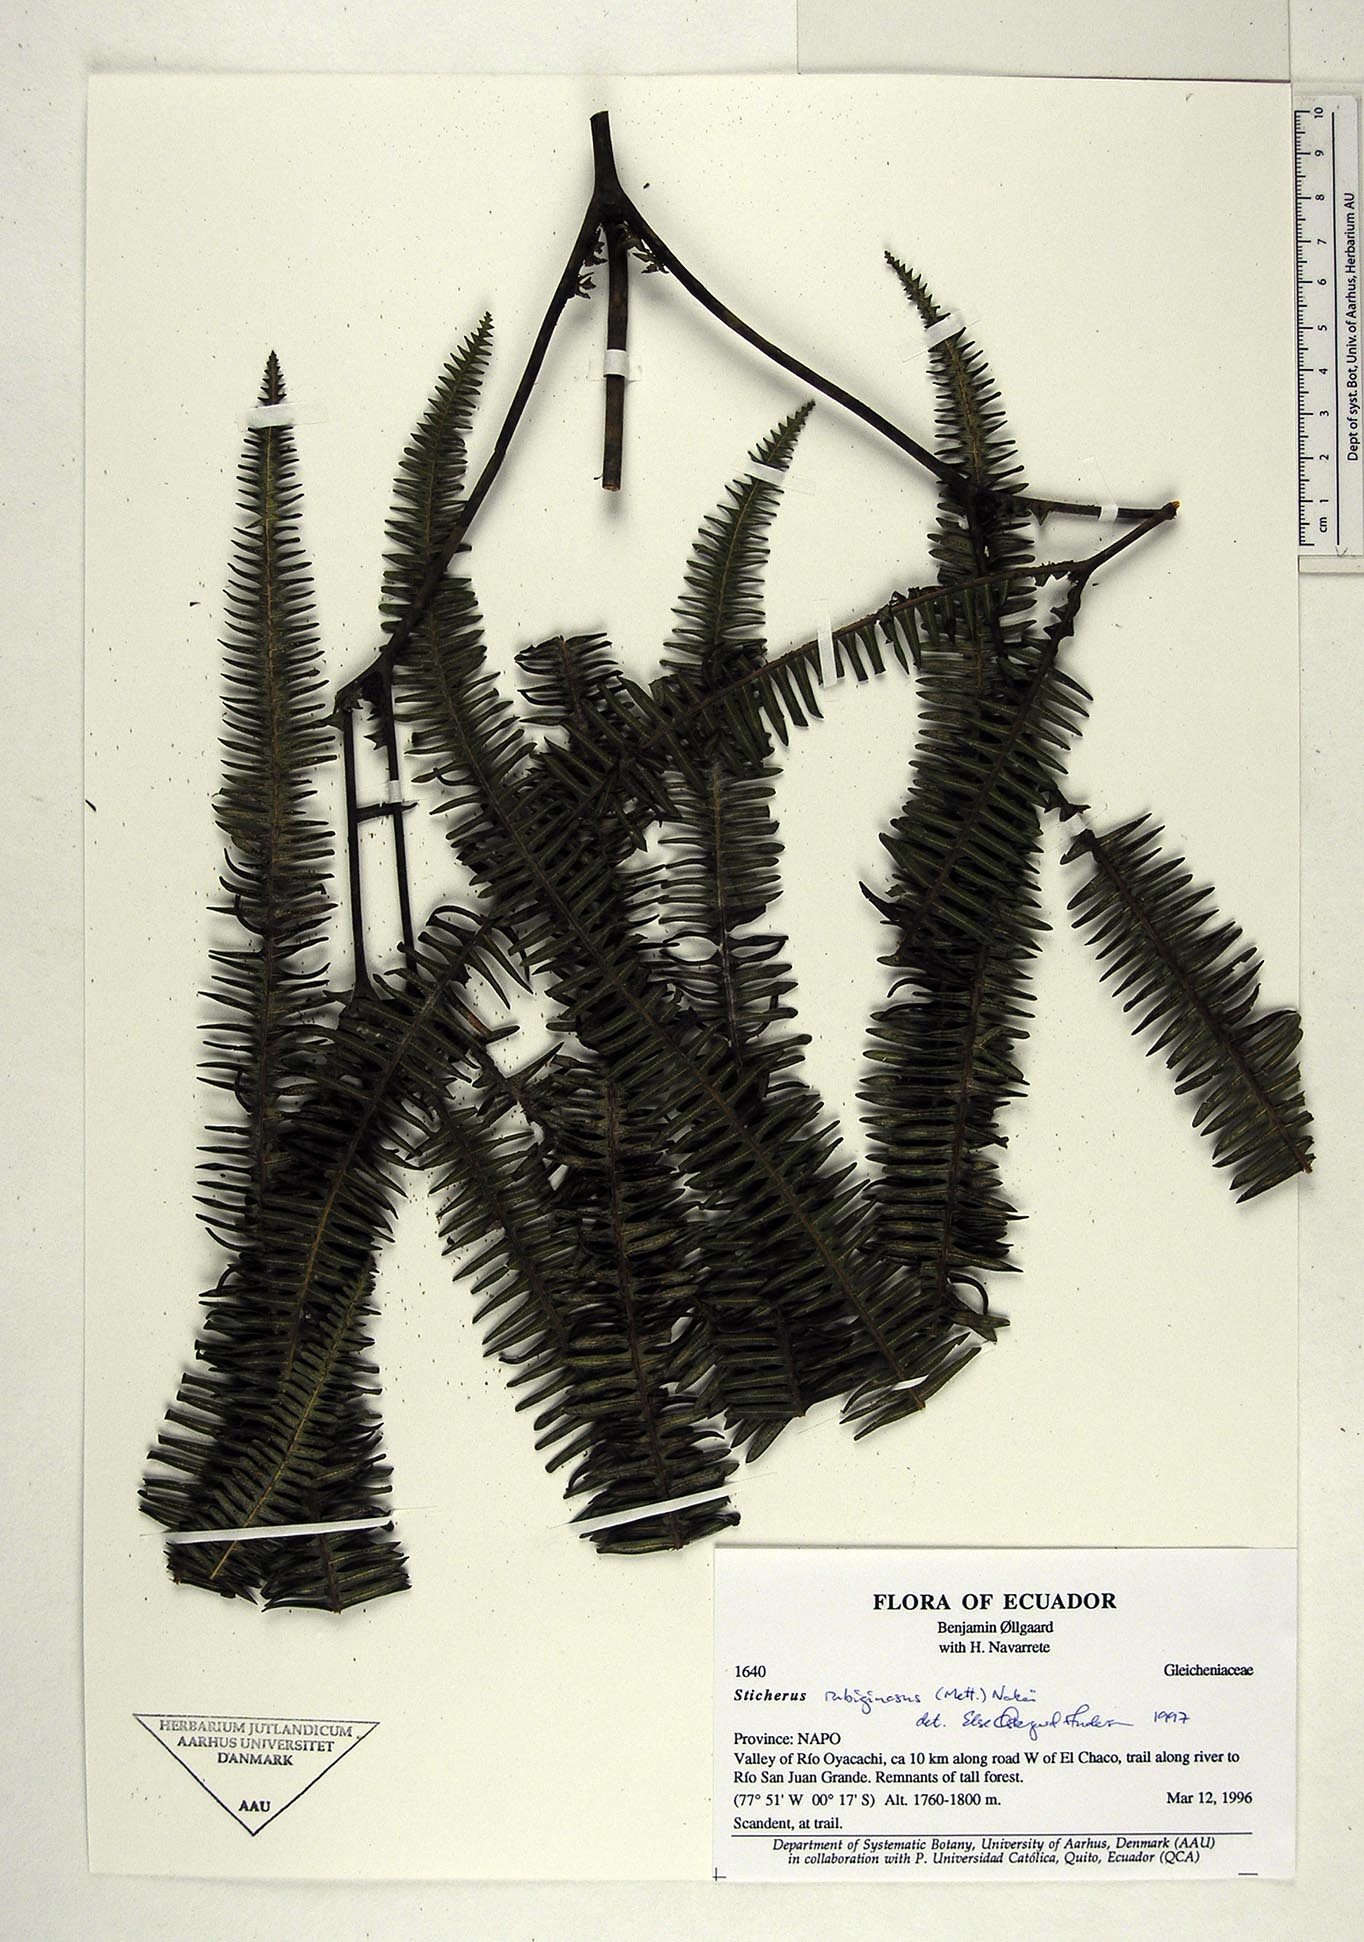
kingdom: Plantae
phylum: Tracheophyta
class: Polypodiopsida
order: Gleicheniales
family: Gleicheniaceae
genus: Sticherus
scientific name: Sticherus rubiginosus
